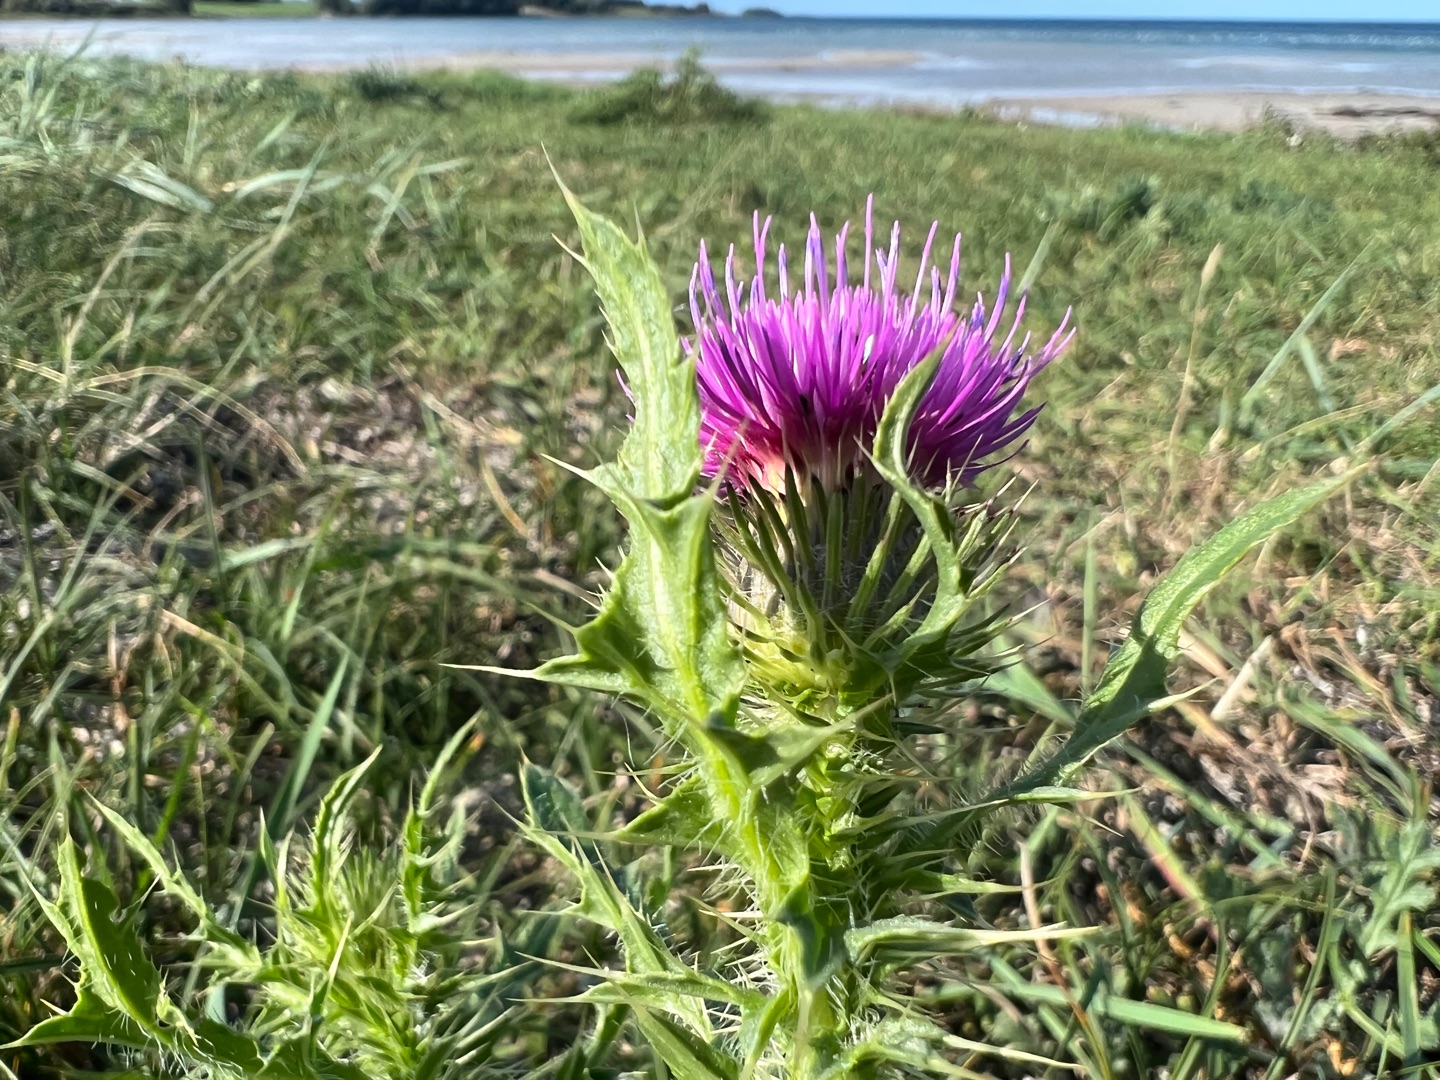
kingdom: Plantae
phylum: Tracheophyta
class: Magnoliopsida
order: Asterales
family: Asteraceae
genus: Carduus
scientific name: Carduus acanthoides
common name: Tornet tidsel
